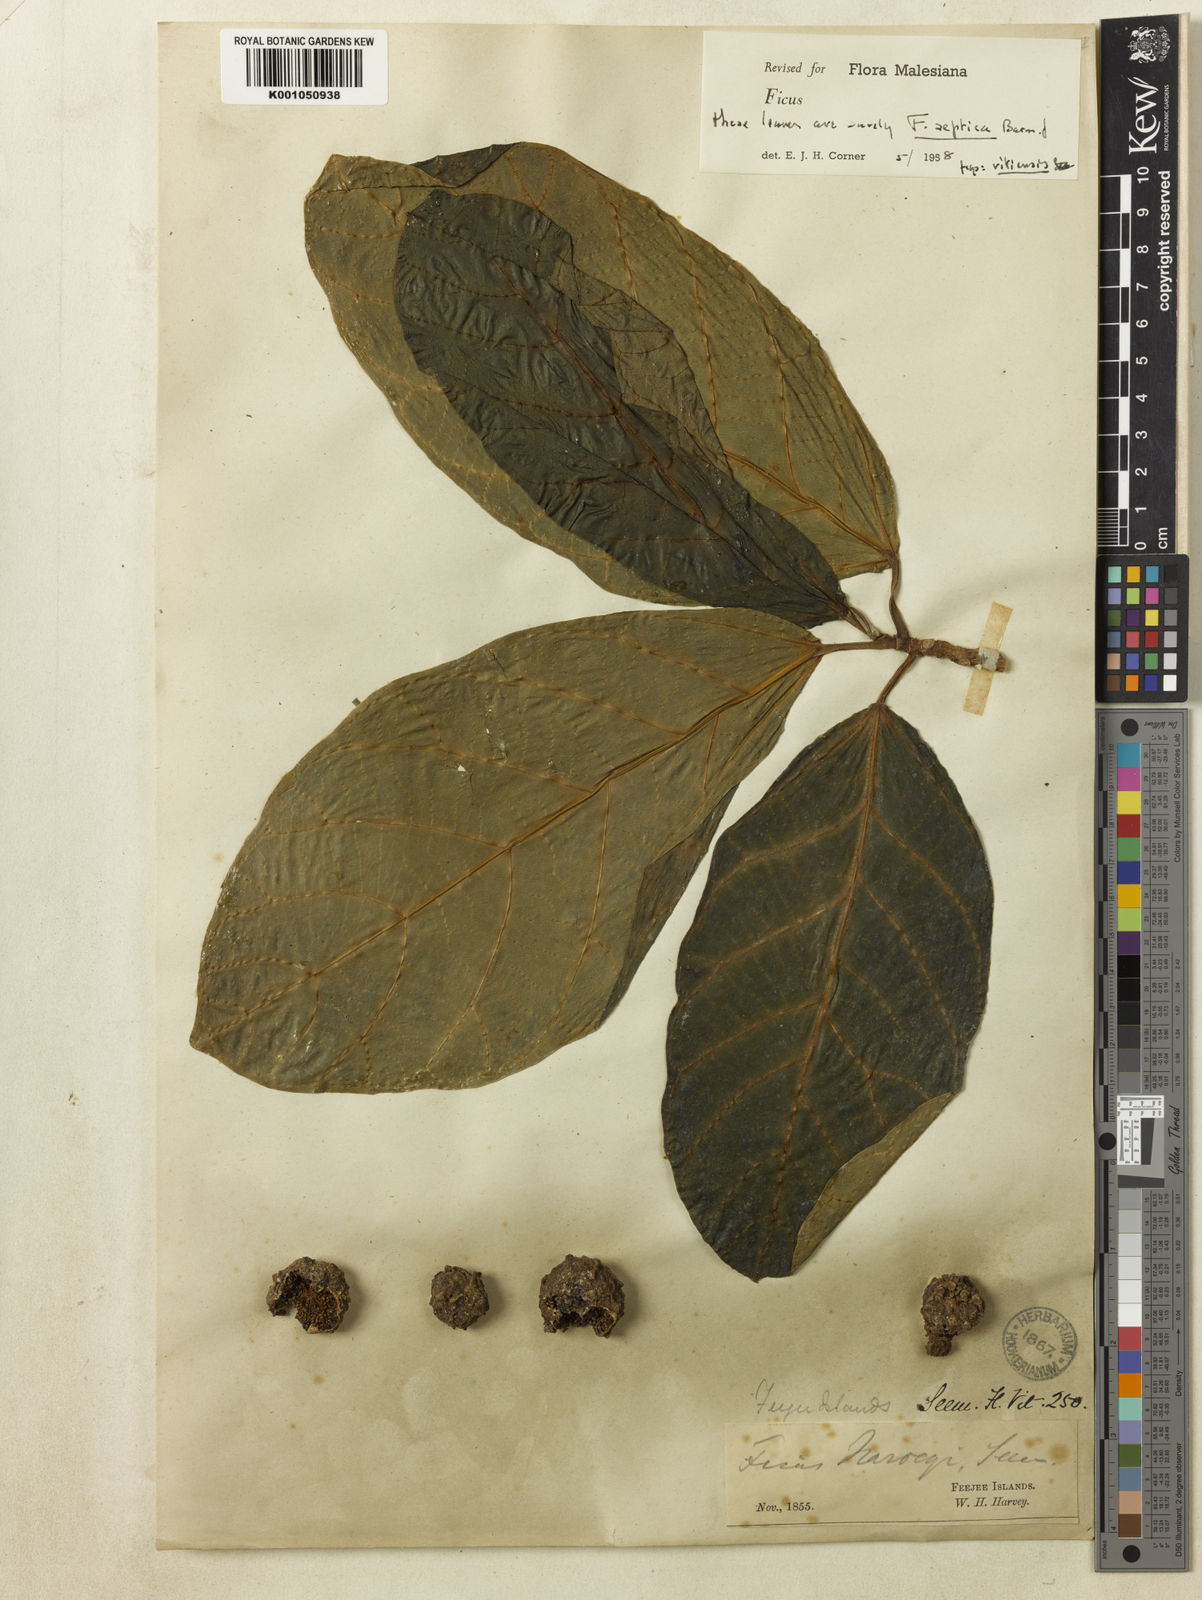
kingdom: Plantae
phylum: Tracheophyta
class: Magnoliopsida
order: Rosales
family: Moraceae
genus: Ficus
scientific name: Ficus vitiensis
